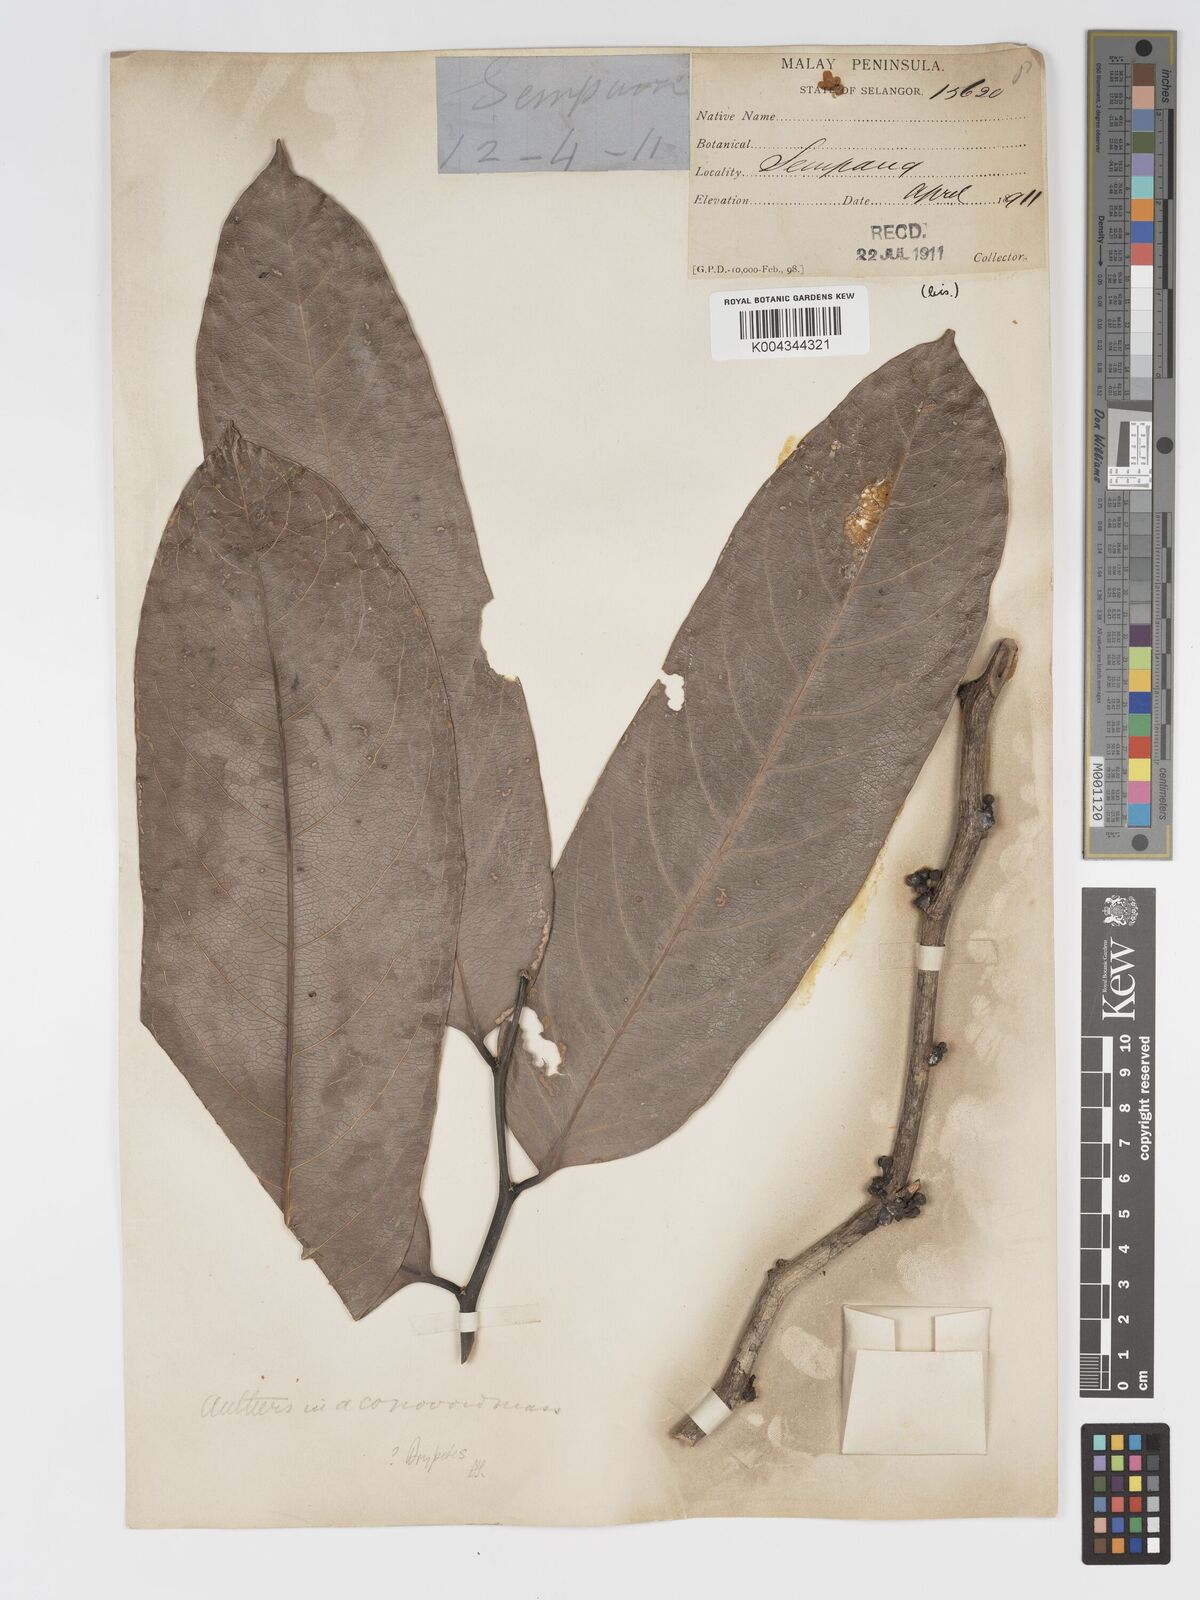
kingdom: Plantae
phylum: Tracheophyta
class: Magnoliopsida
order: Malpighiales
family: Putranjivaceae
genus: Drypetes
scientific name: Drypetes longifolia
